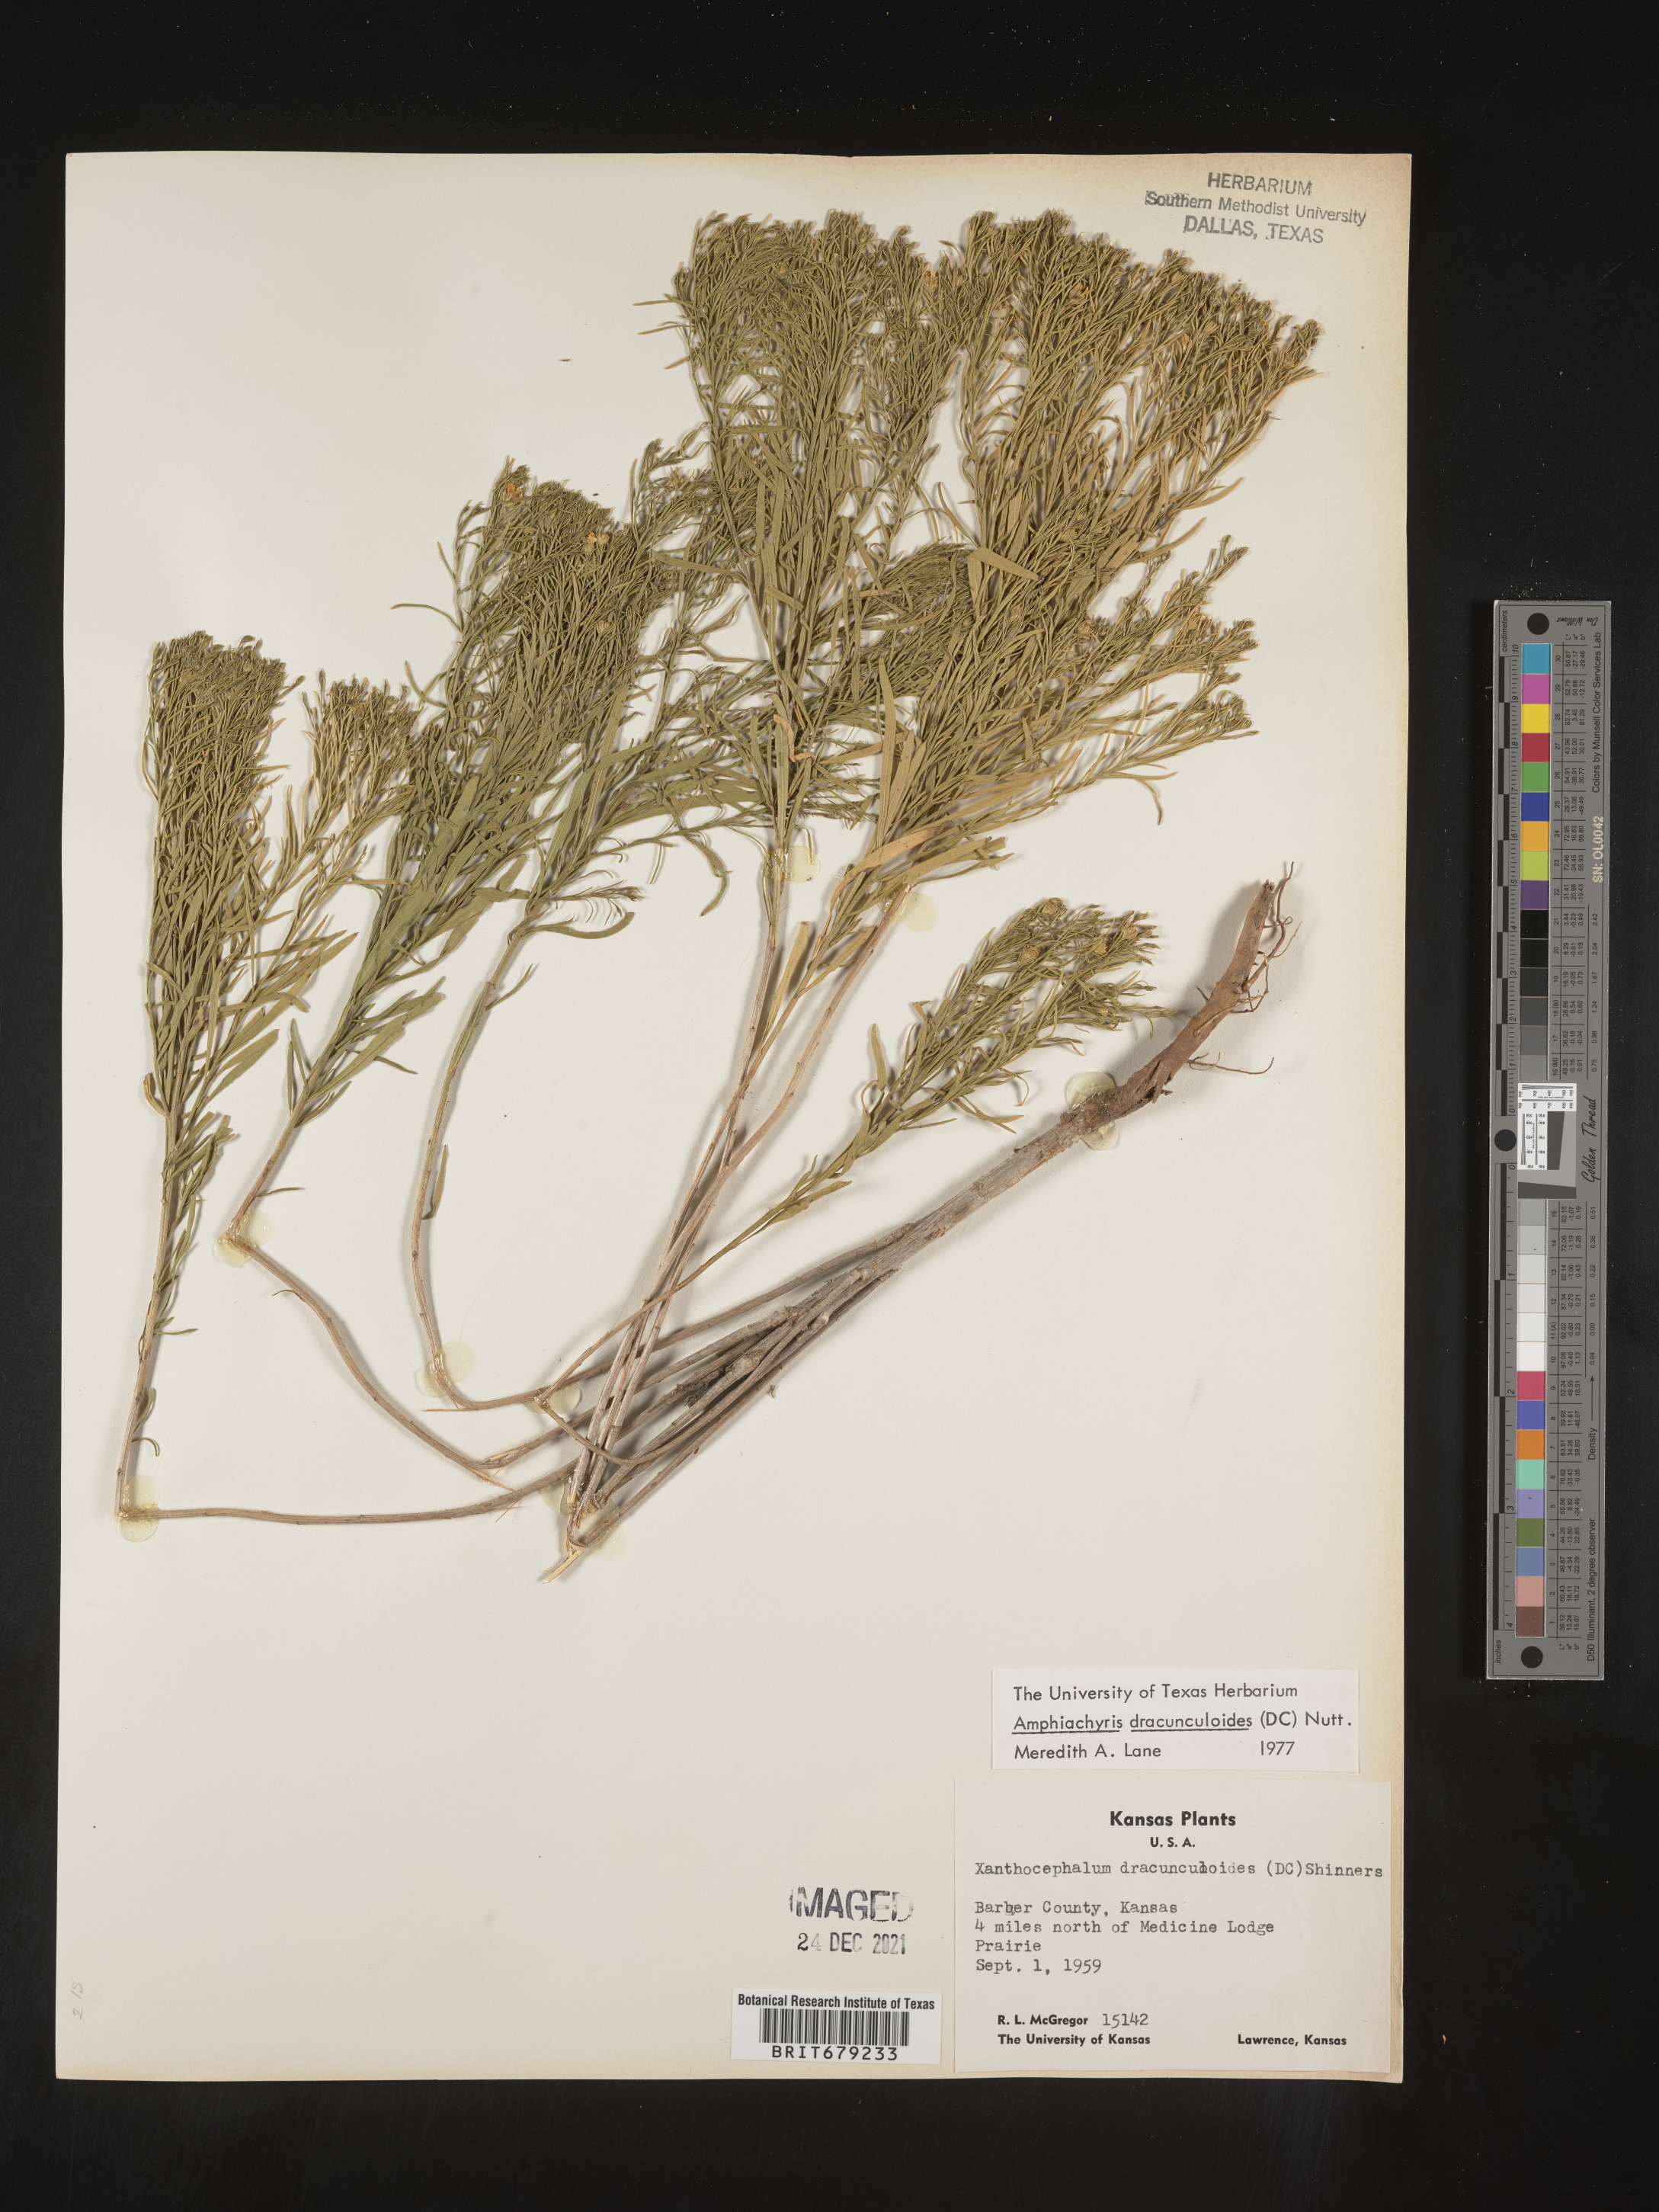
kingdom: Plantae
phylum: Tracheophyta
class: Magnoliopsida
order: Asterales
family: Asteraceae
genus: Amphiachyris
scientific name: Amphiachyris dracunculoides
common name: Broomweed
